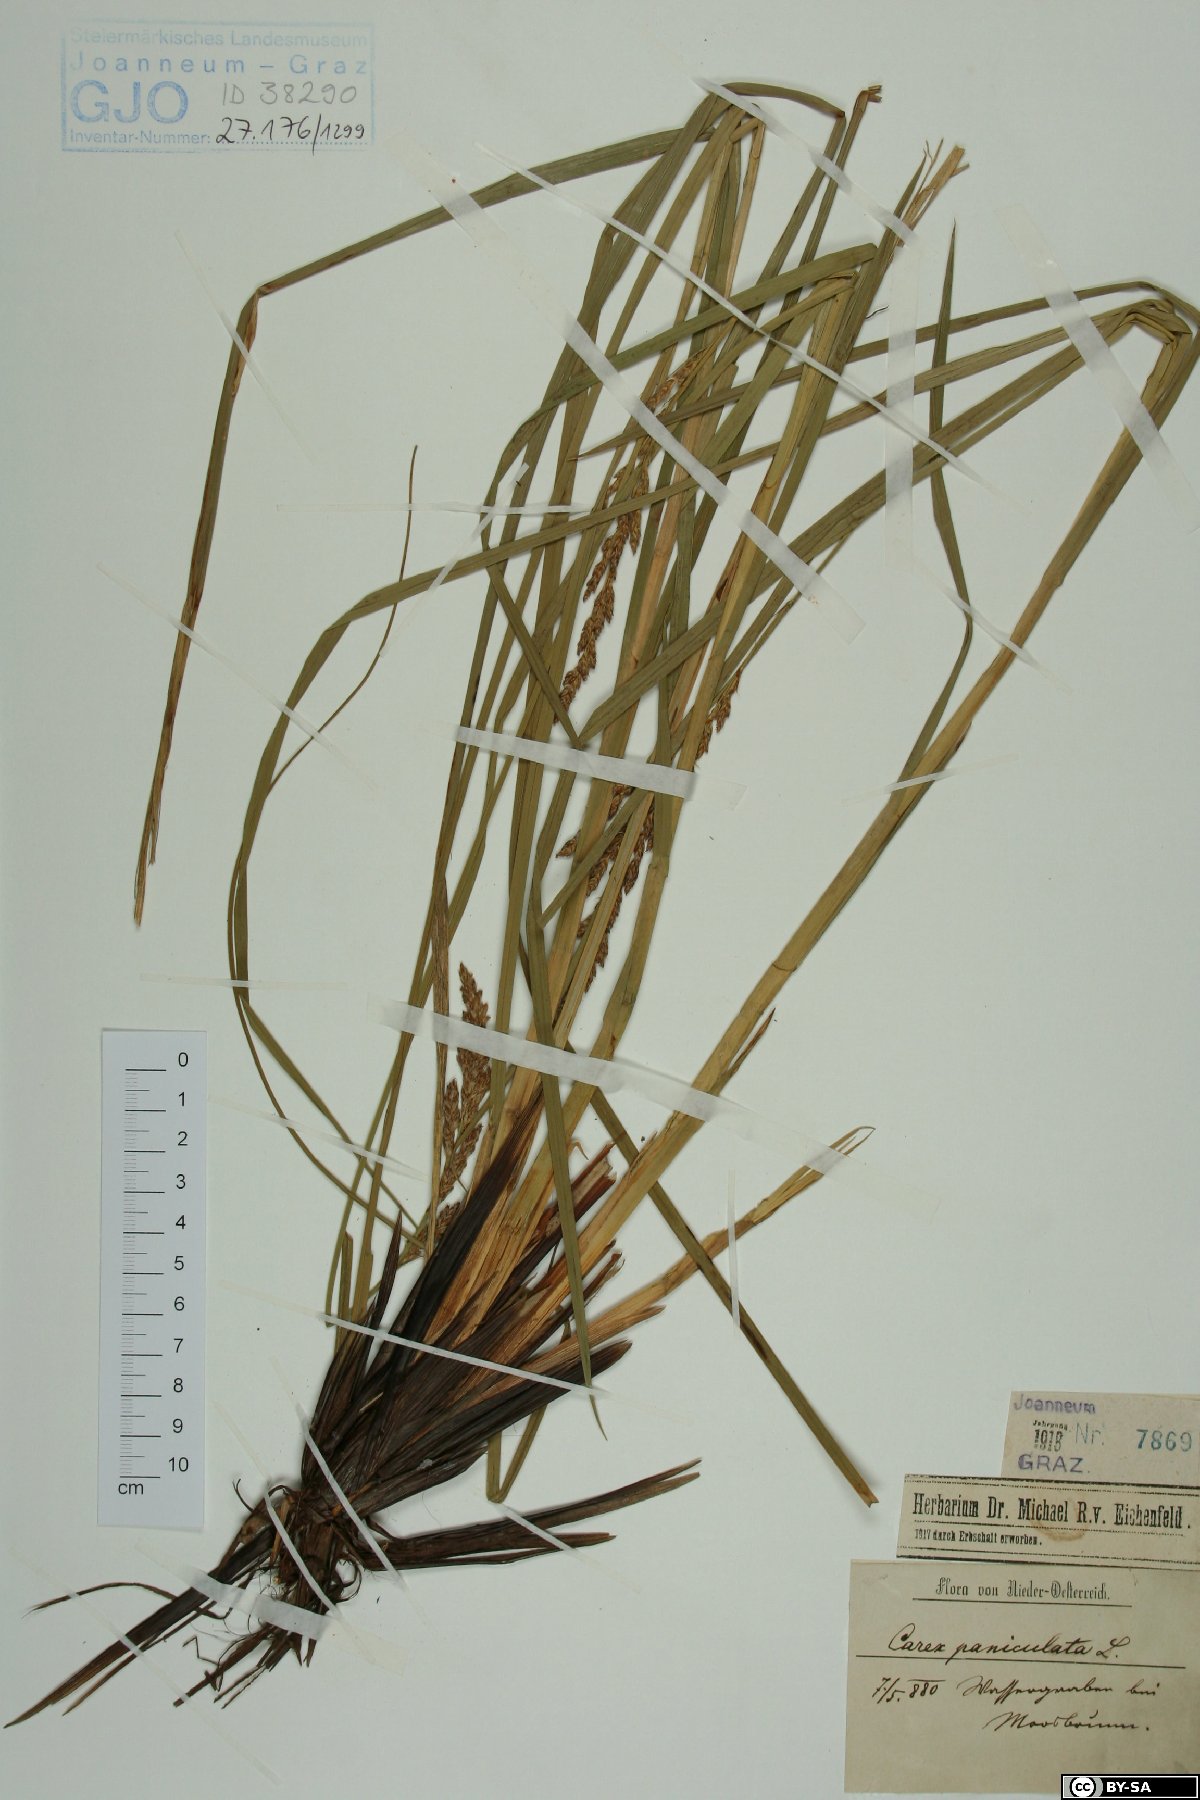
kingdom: Plantae
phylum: Tracheophyta
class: Liliopsida
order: Poales
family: Cyperaceae
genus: Carex
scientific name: Carex paniculata
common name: Greater tussock-sedge
